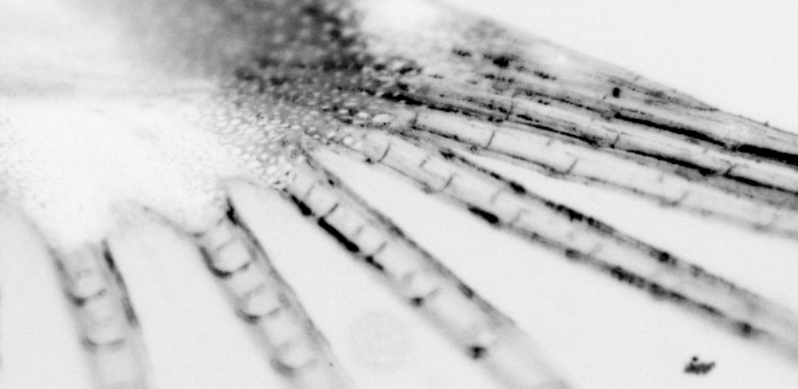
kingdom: Animalia
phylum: Chordata
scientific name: Chordata
